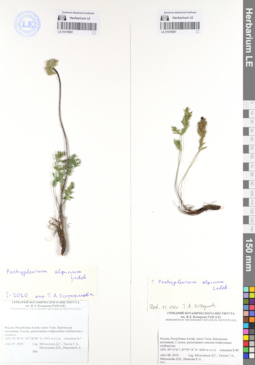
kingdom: Plantae
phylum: Tracheophyta
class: Magnoliopsida
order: Apiales
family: Apiaceae
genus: Pachypleurum
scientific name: Pachypleurum mutellinoides
